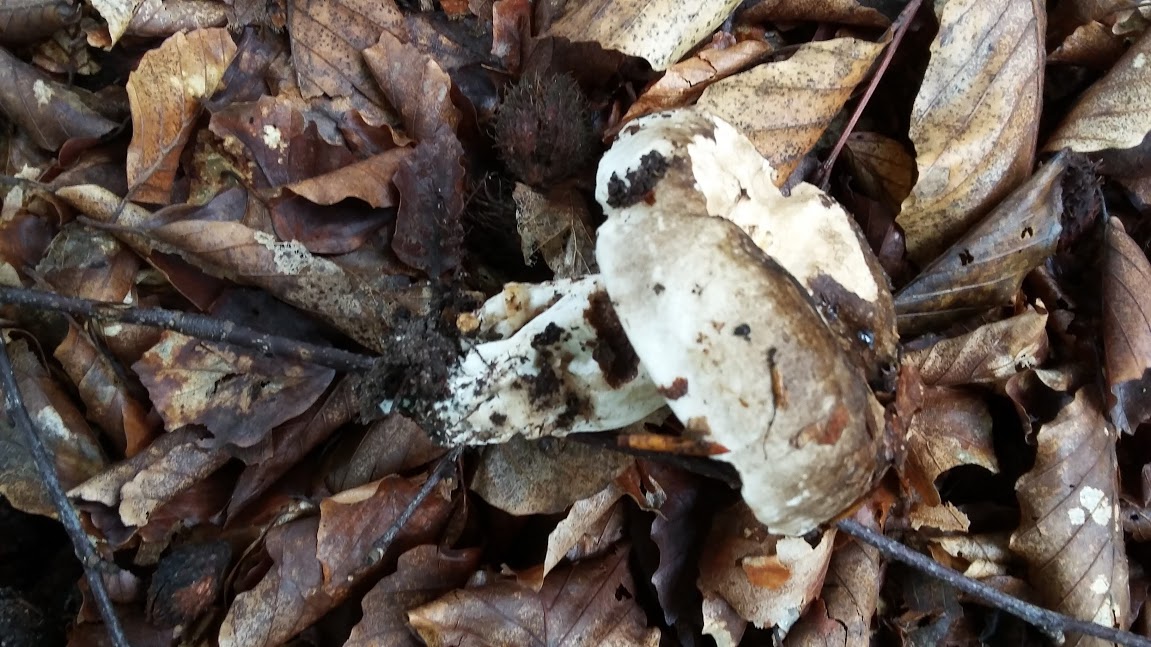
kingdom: Fungi
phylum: Basidiomycota
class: Agaricomycetes
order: Russulales
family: Russulaceae
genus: Russula
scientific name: Russula adusta
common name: sværtende skørhat
